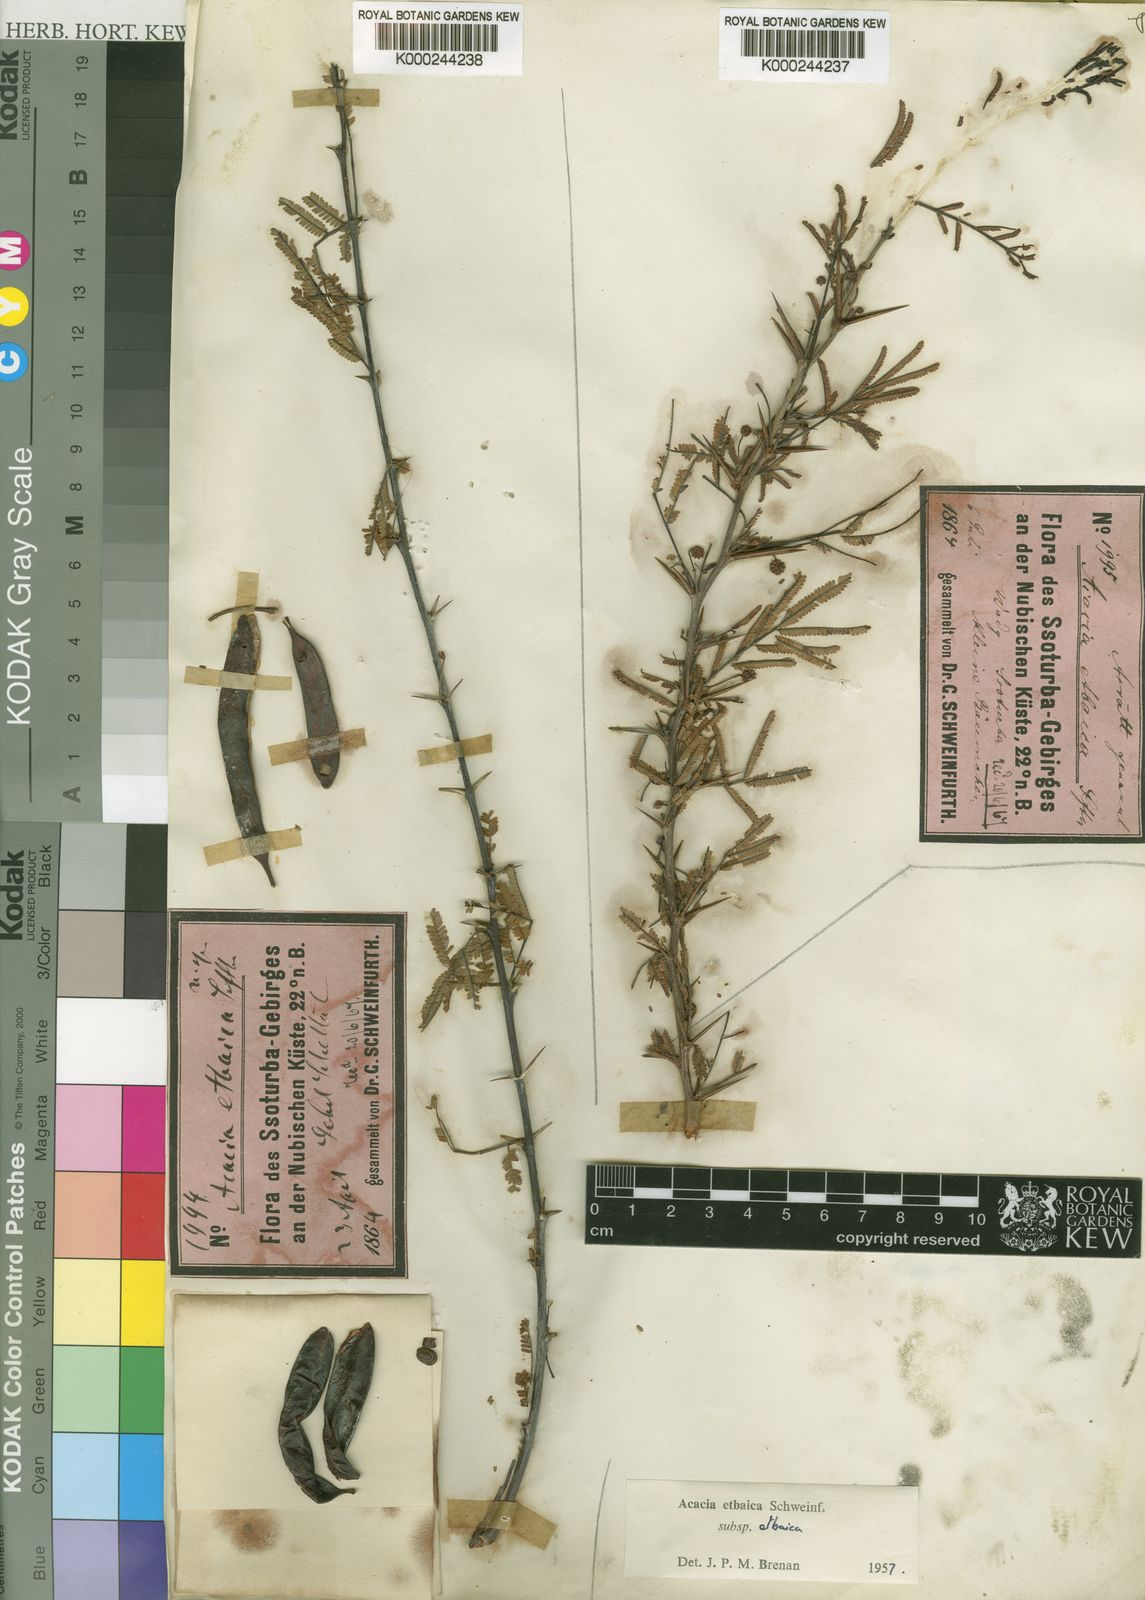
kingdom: Plantae
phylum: Tracheophyta
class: Magnoliopsida
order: Fabales
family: Fabaceae
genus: Vachellia
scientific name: Vachellia etbaica
